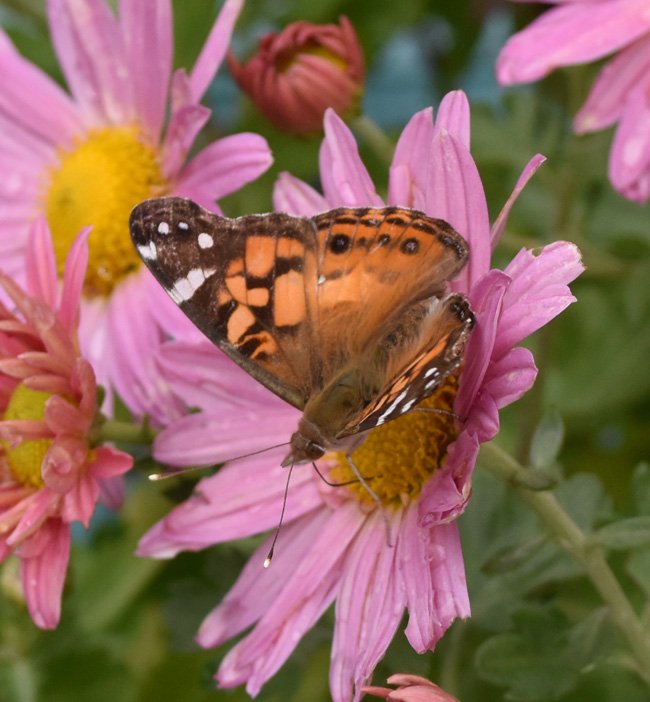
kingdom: Animalia
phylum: Arthropoda
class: Insecta
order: Lepidoptera
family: Nymphalidae
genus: Vanessa
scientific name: Vanessa cardui
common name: Painted Lady
